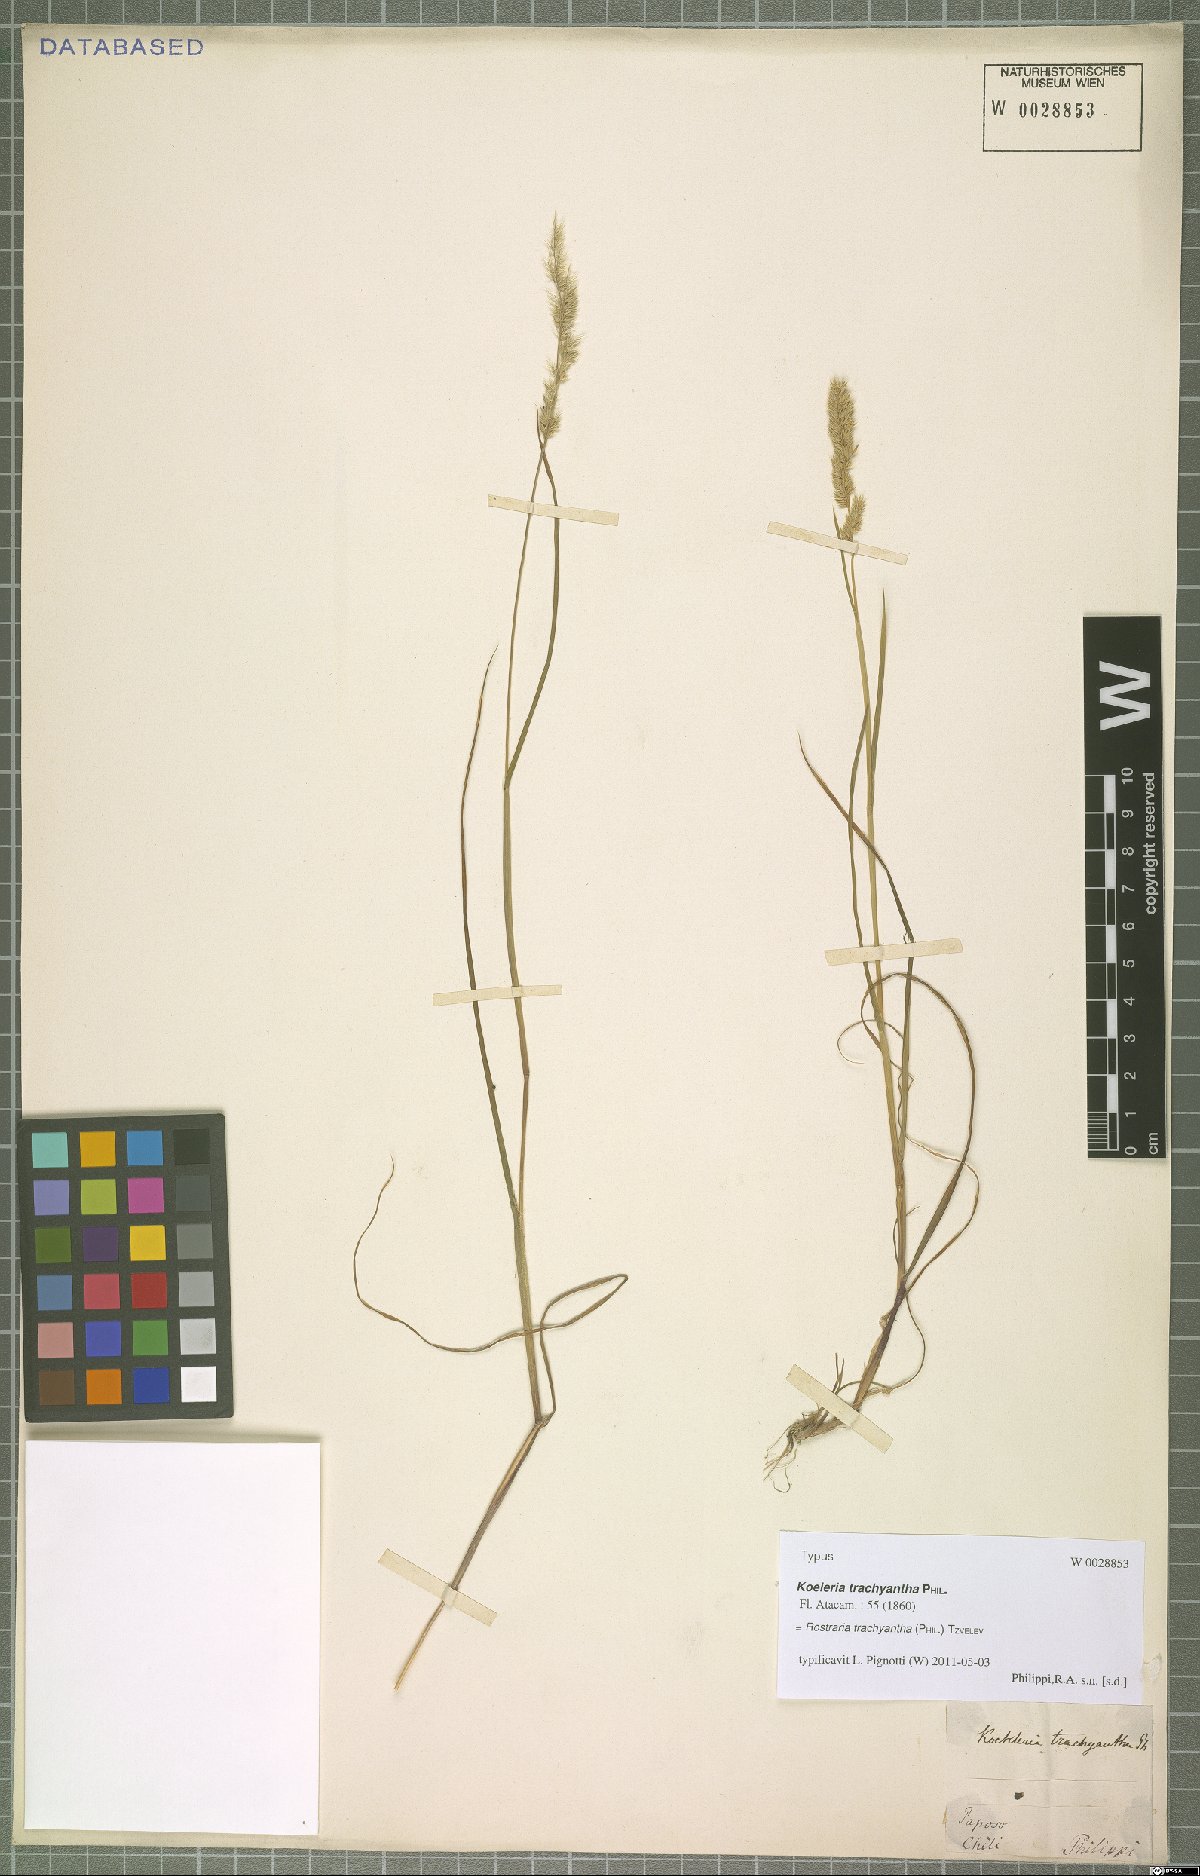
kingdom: Plantae
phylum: Tracheophyta
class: Liliopsida
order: Poales
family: Poaceae
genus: Rostraria
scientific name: Rostraria trachyantha
